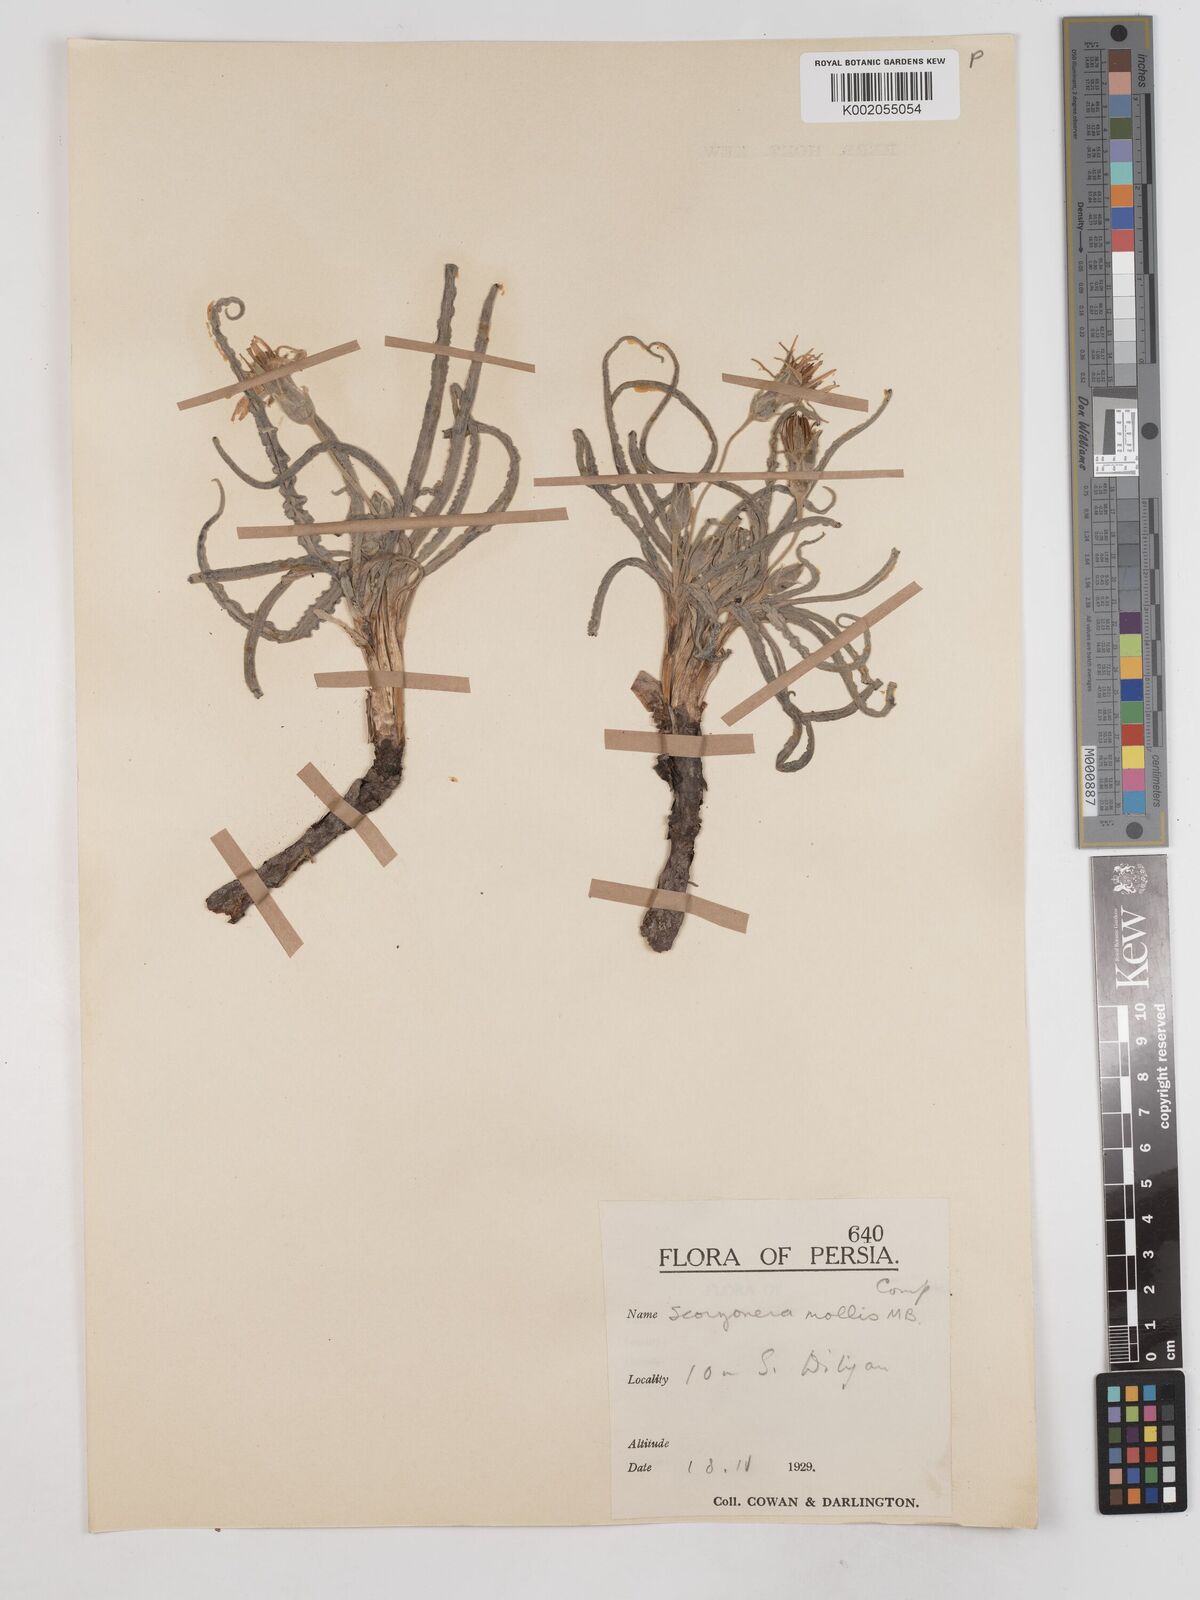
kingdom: Plantae
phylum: Tracheophyta
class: Magnoliopsida
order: Asterales
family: Asteraceae
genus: Candollea
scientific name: Candollea mollis
